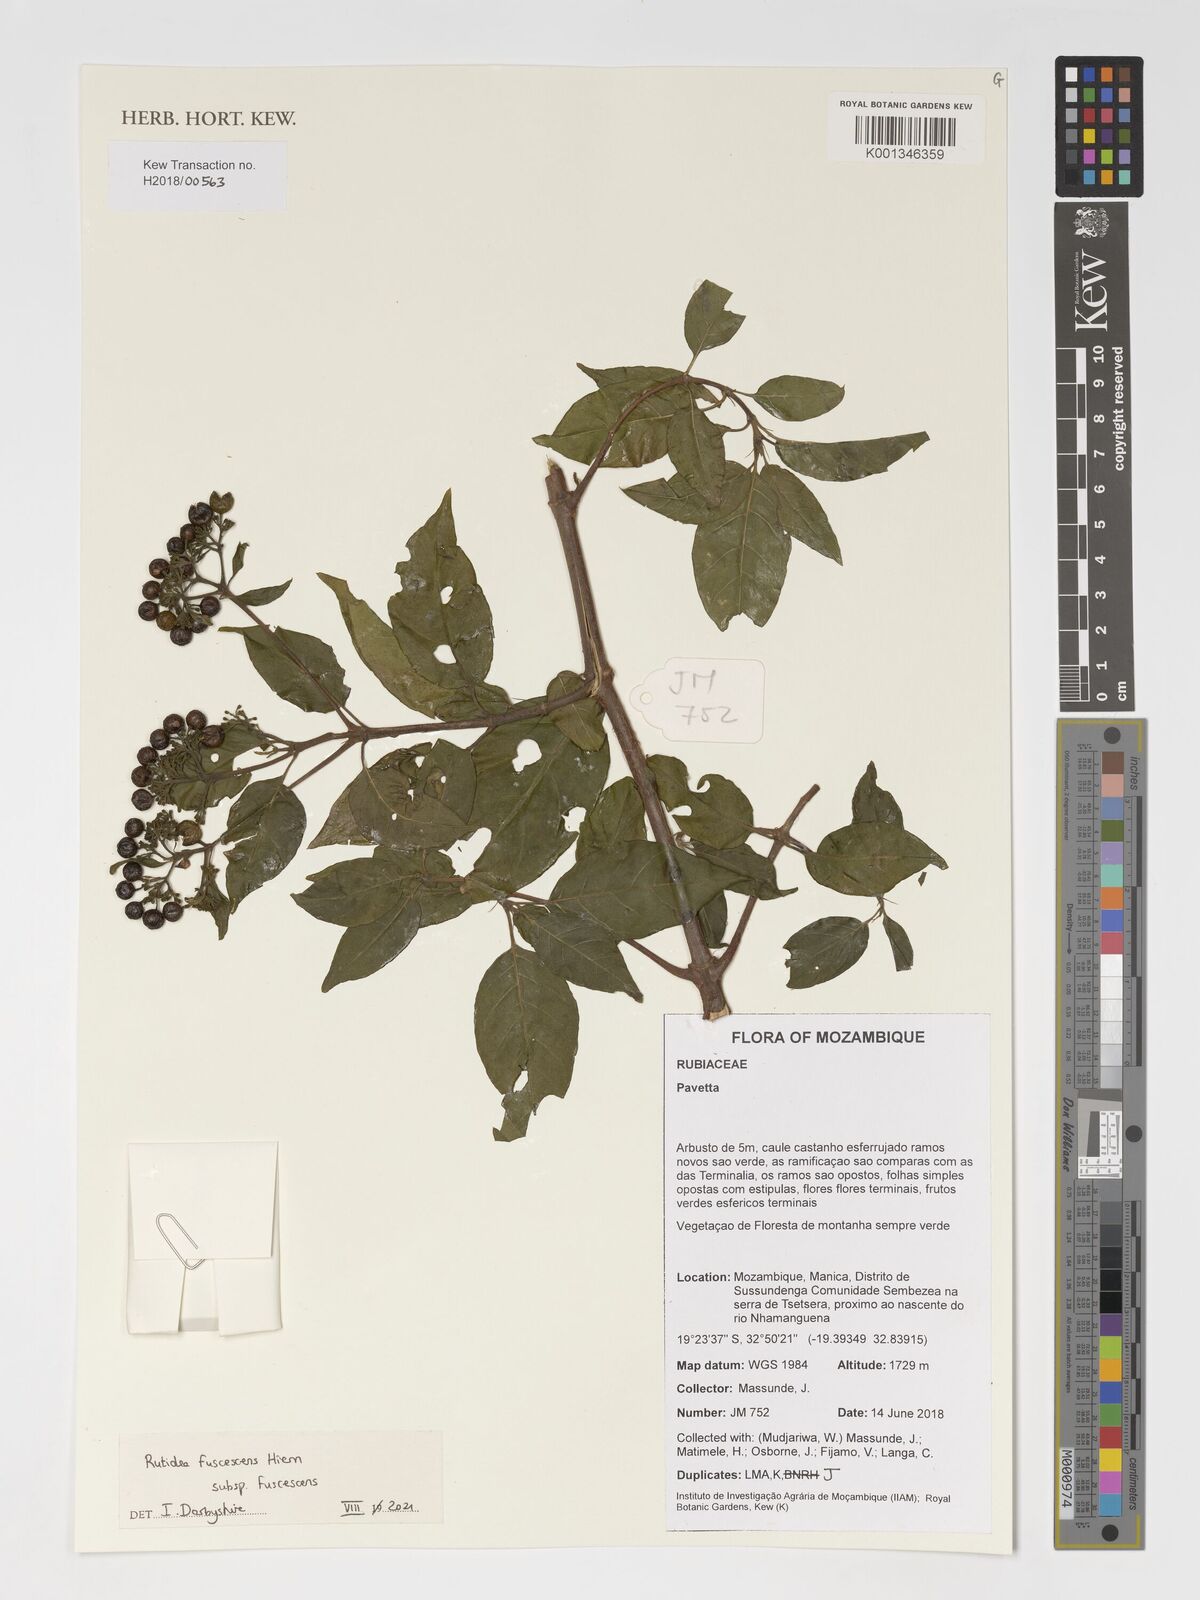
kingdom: Plantae
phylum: Tracheophyta
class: Magnoliopsida
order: Gentianales
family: Rubiaceae
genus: Rutidea
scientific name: Rutidea fuscescens
